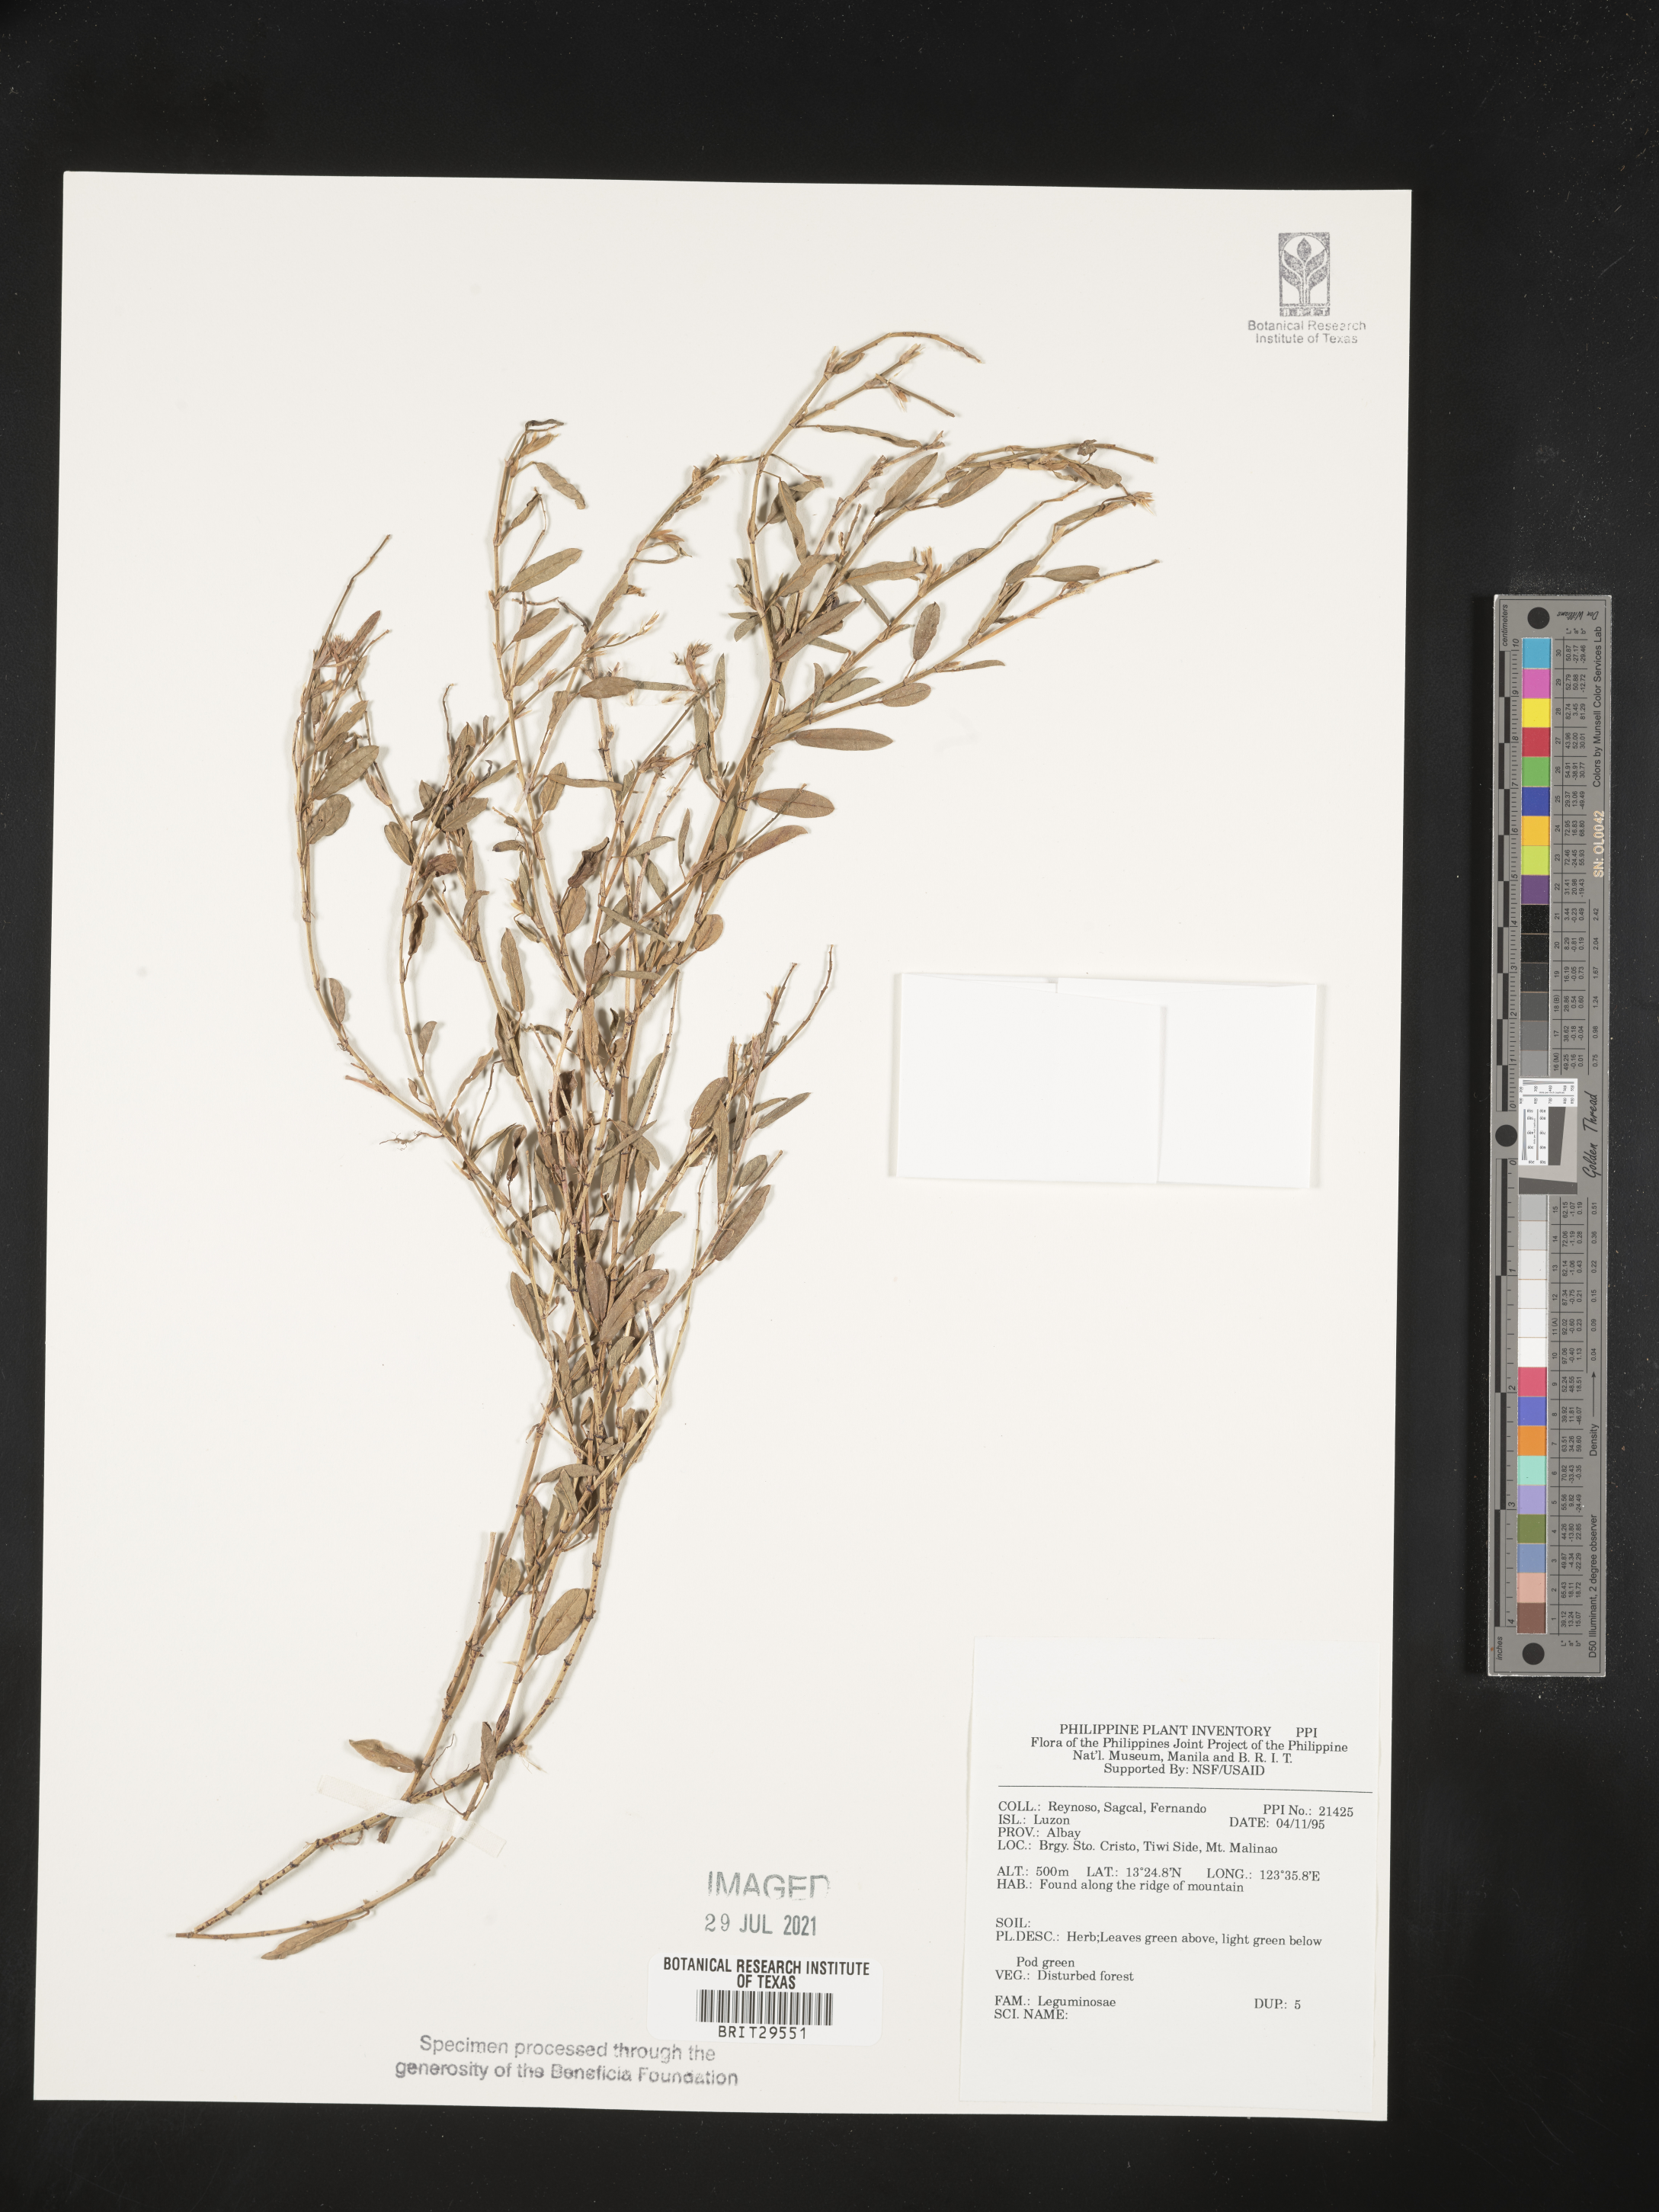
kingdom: Plantae
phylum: Tracheophyta
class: Magnoliopsida
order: Fabales
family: Fabaceae
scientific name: Fabaceae
